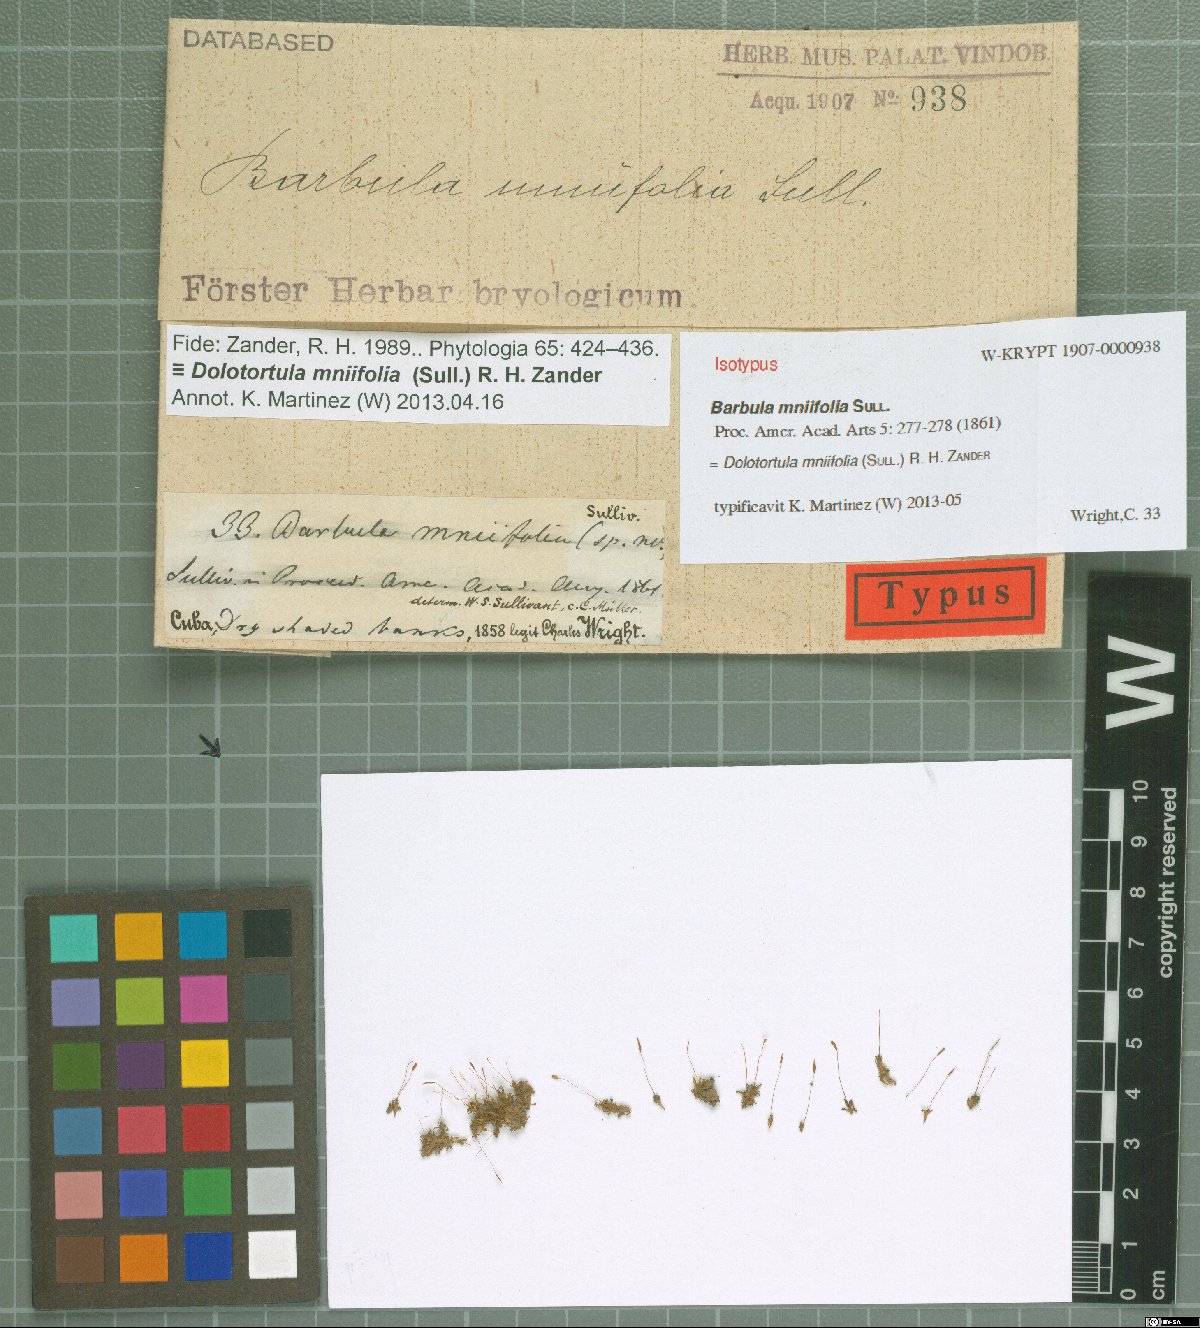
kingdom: Plantae
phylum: Bryophyta
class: Bryopsida
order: Pottiales
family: Pottiaceae
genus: Dolotortula
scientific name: Dolotortula mniifolia
